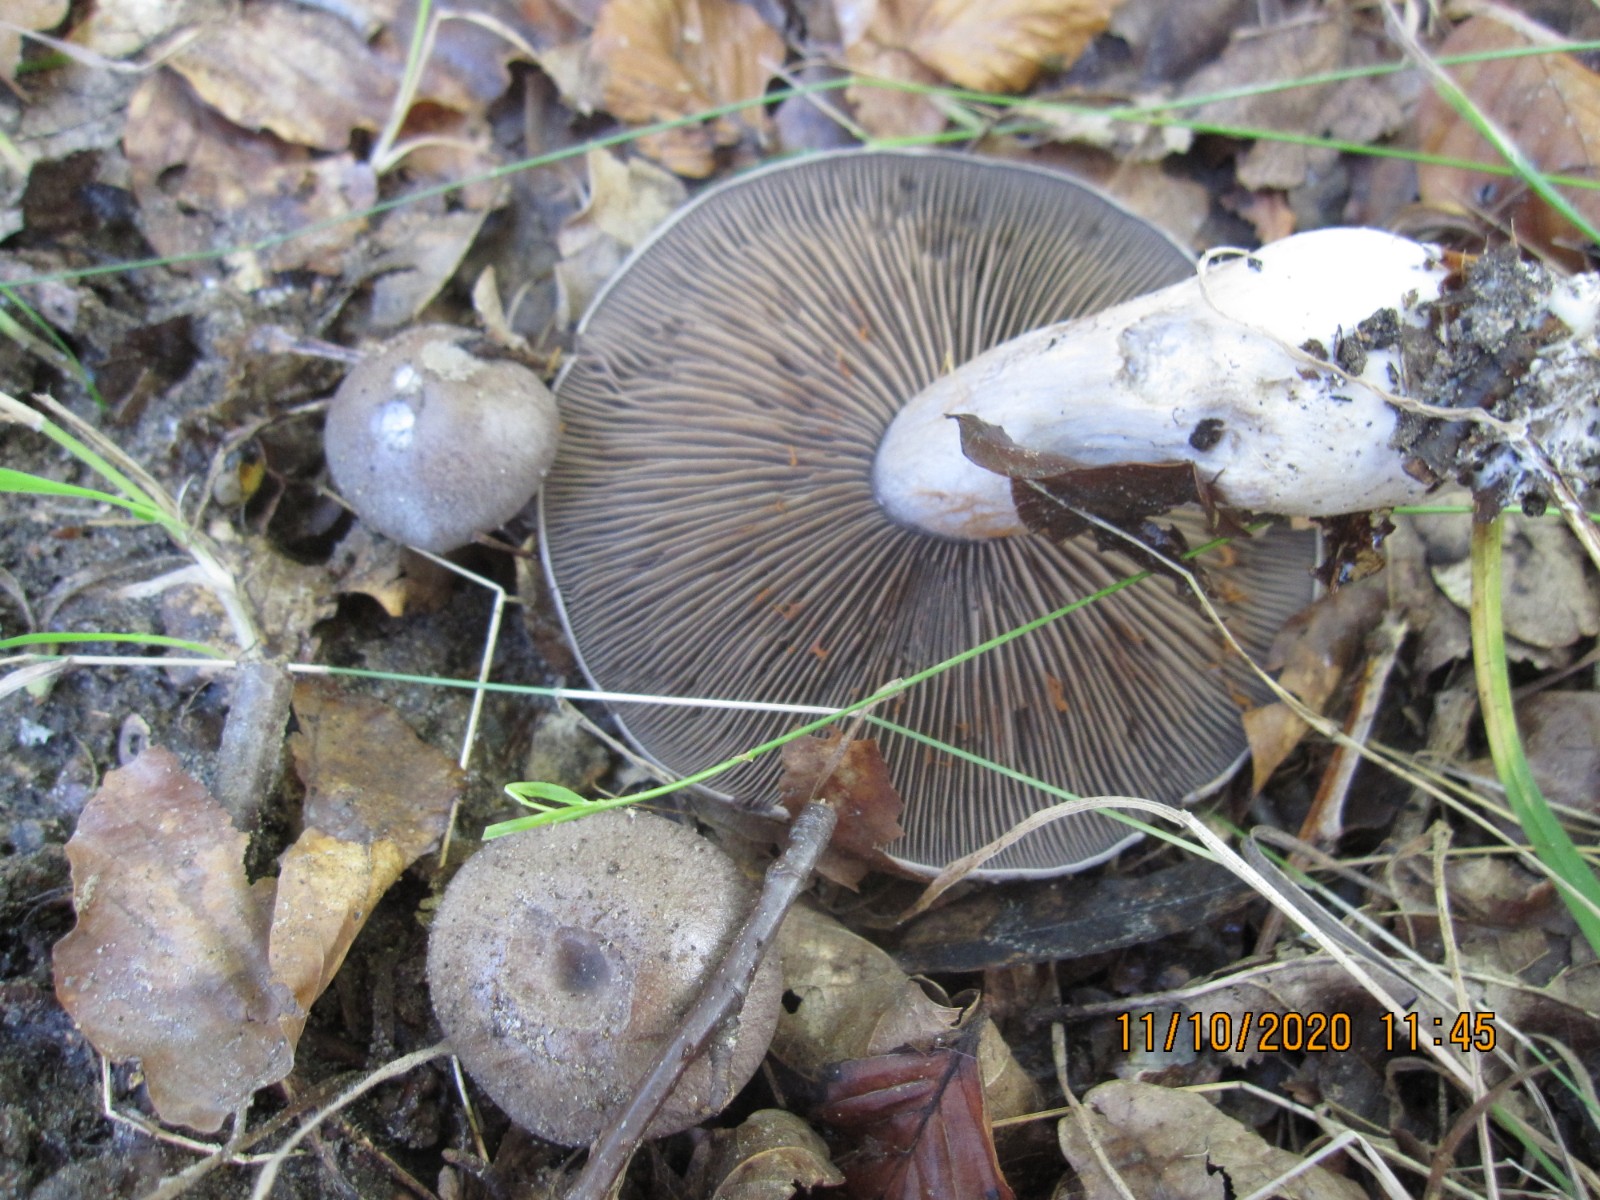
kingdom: Fungi
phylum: Basidiomycota
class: Agaricomycetes
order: Agaricales
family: Cortinariaceae
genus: Cortinarius
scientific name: Cortinarius
